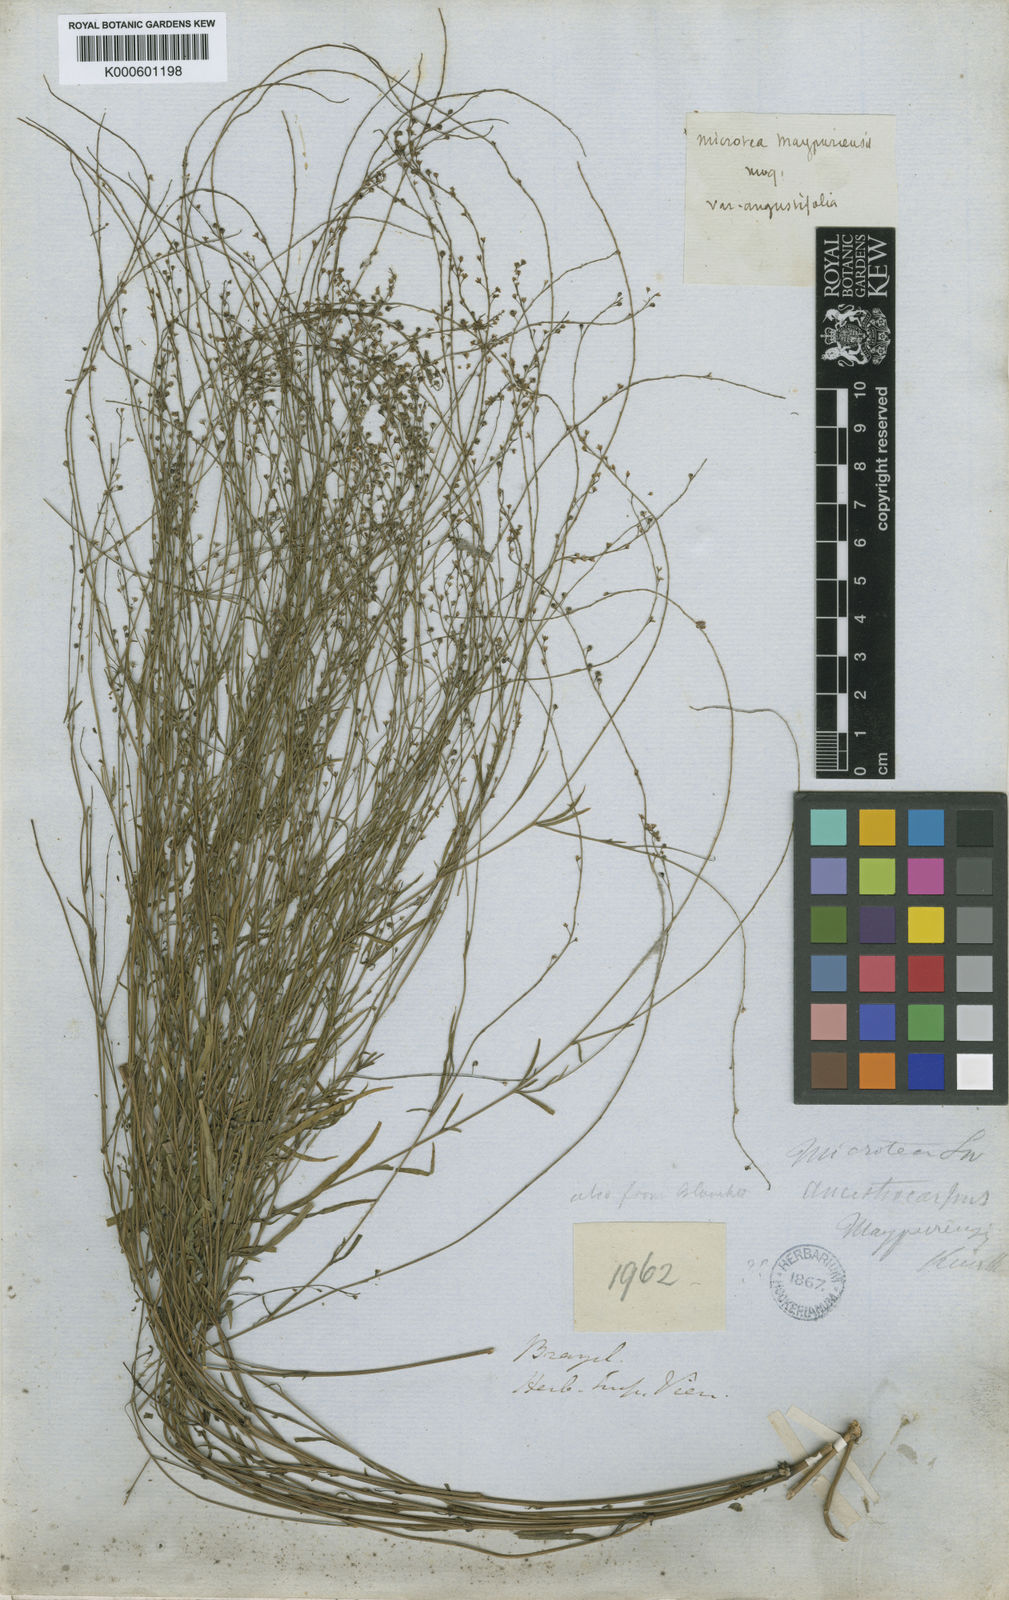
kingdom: Plantae
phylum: Tracheophyta
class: Magnoliopsida
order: Caryophyllales
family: Microteaceae
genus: Microtea
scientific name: Microtea tenuifolia
